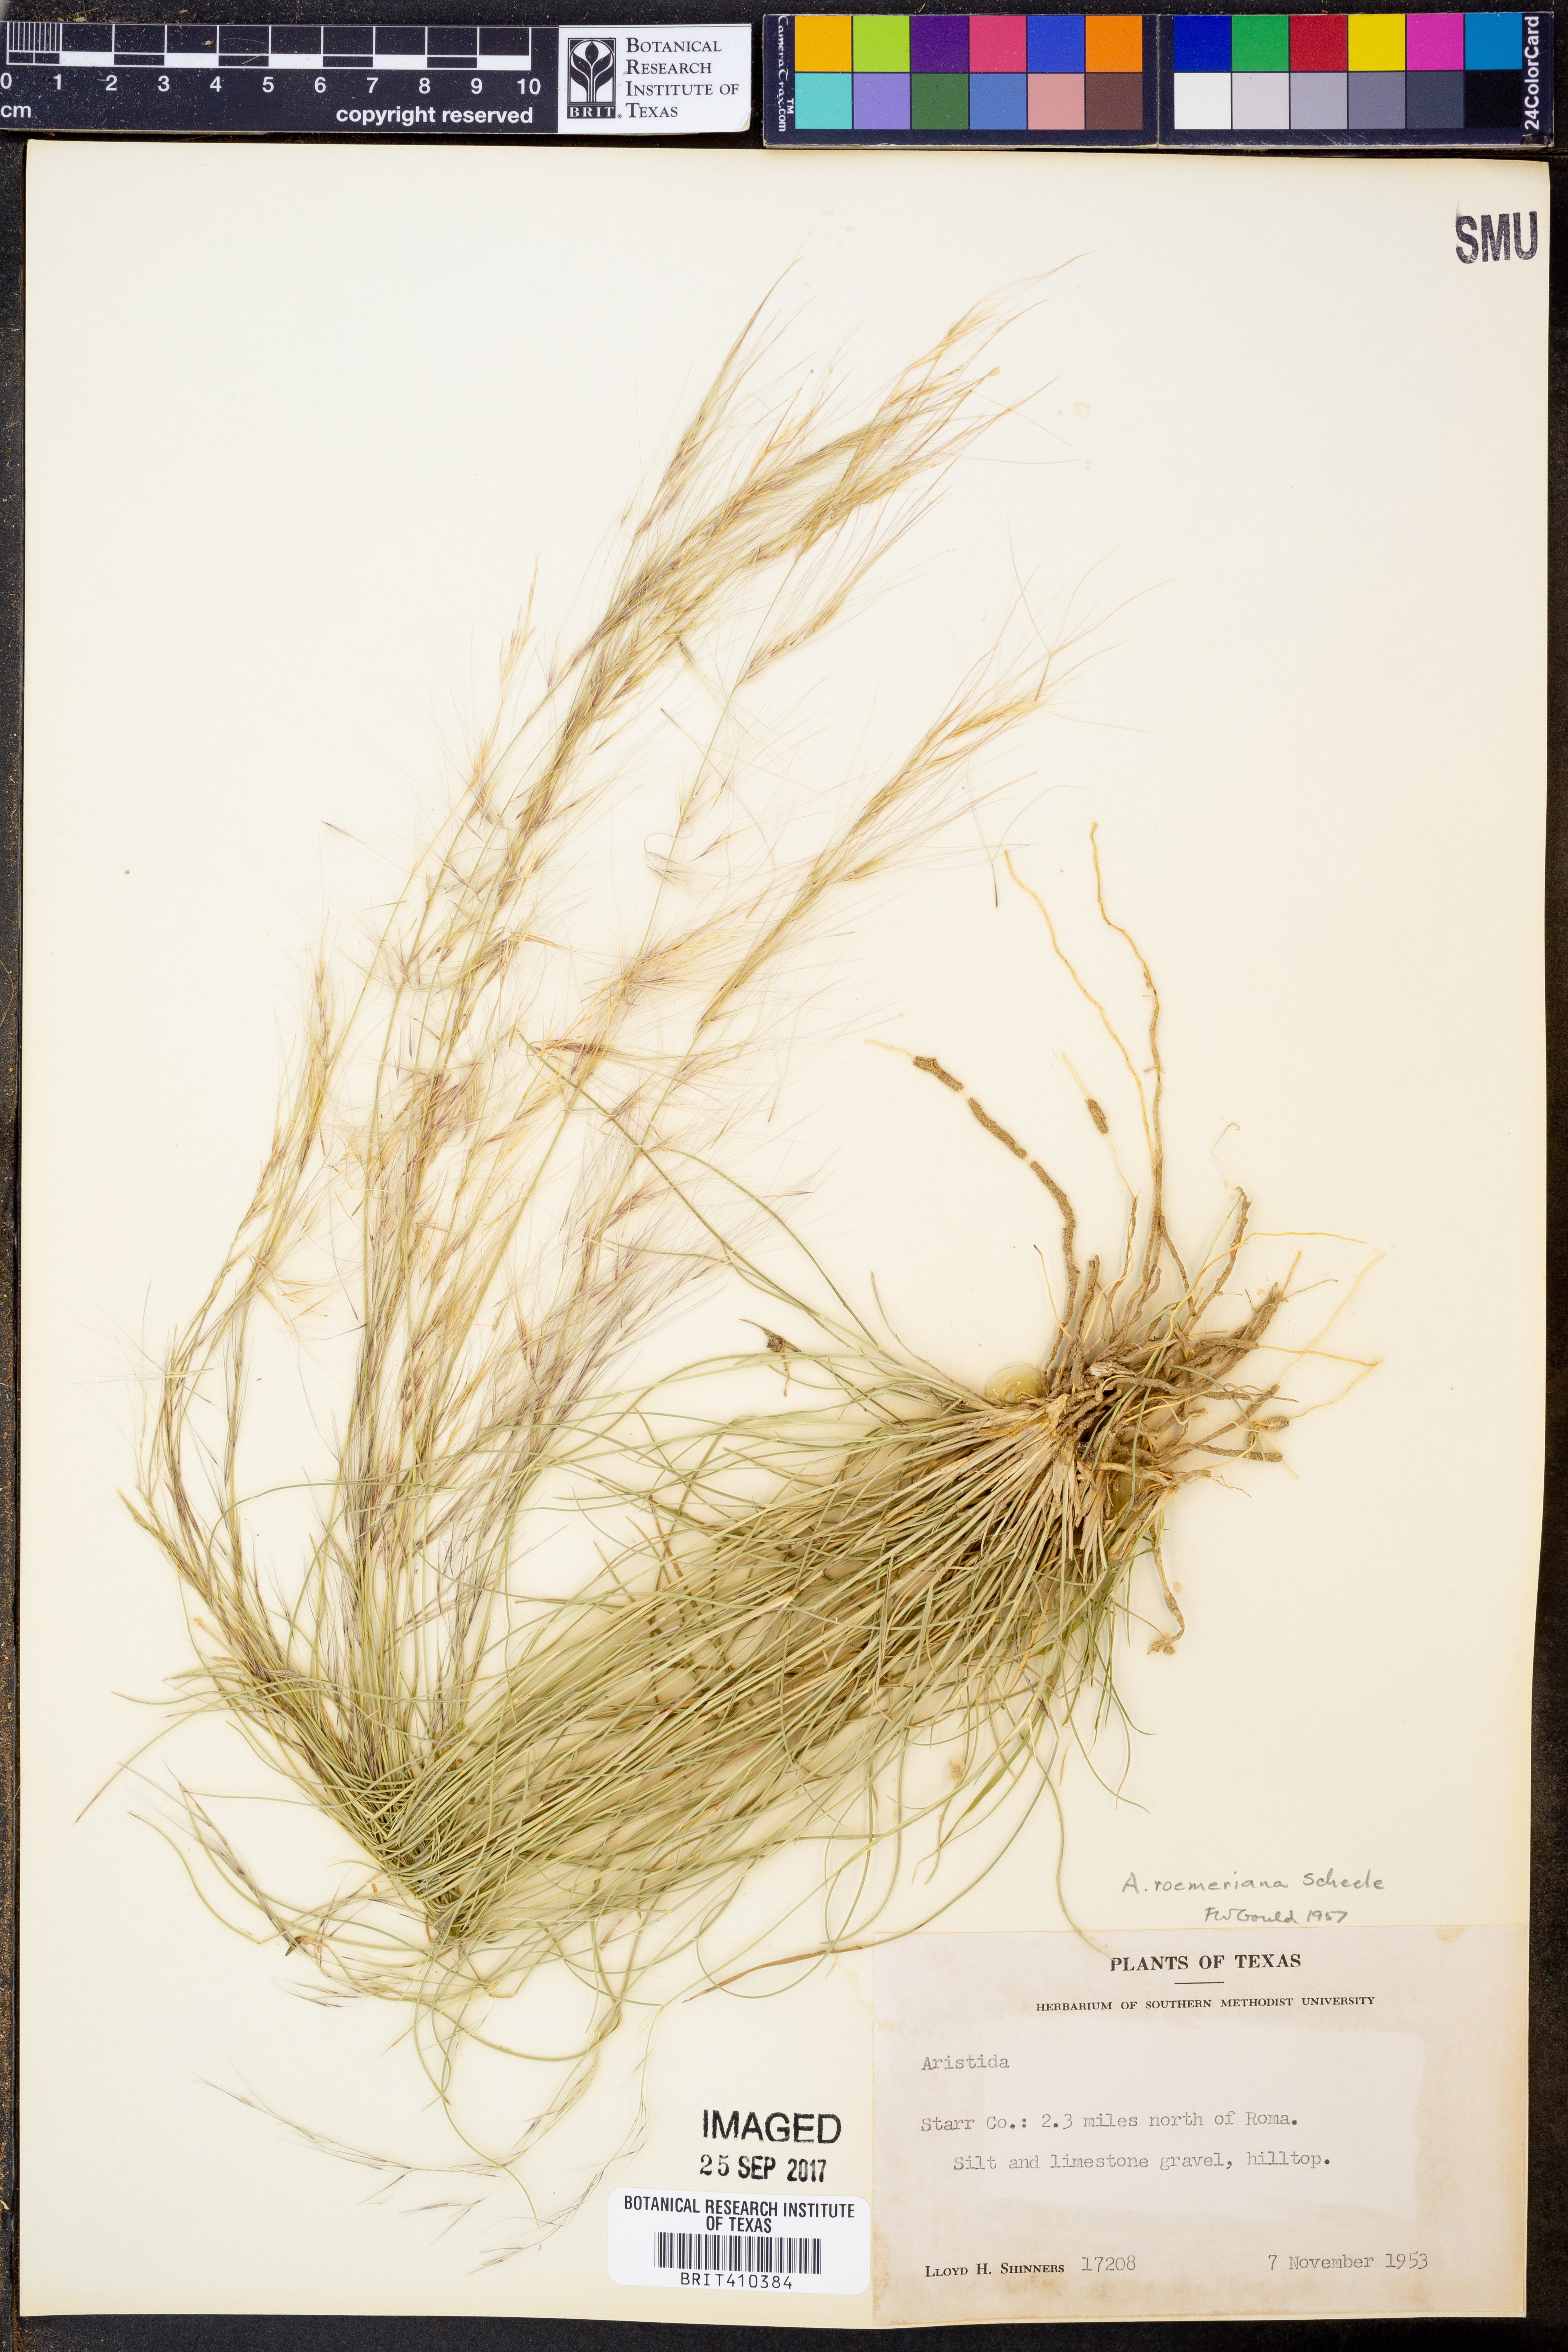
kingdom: Plantae
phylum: Tracheophyta
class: Liliopsida
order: Poales
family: Poaceae
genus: Aristida
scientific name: Aristida purpurea
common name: Purple threeawn
